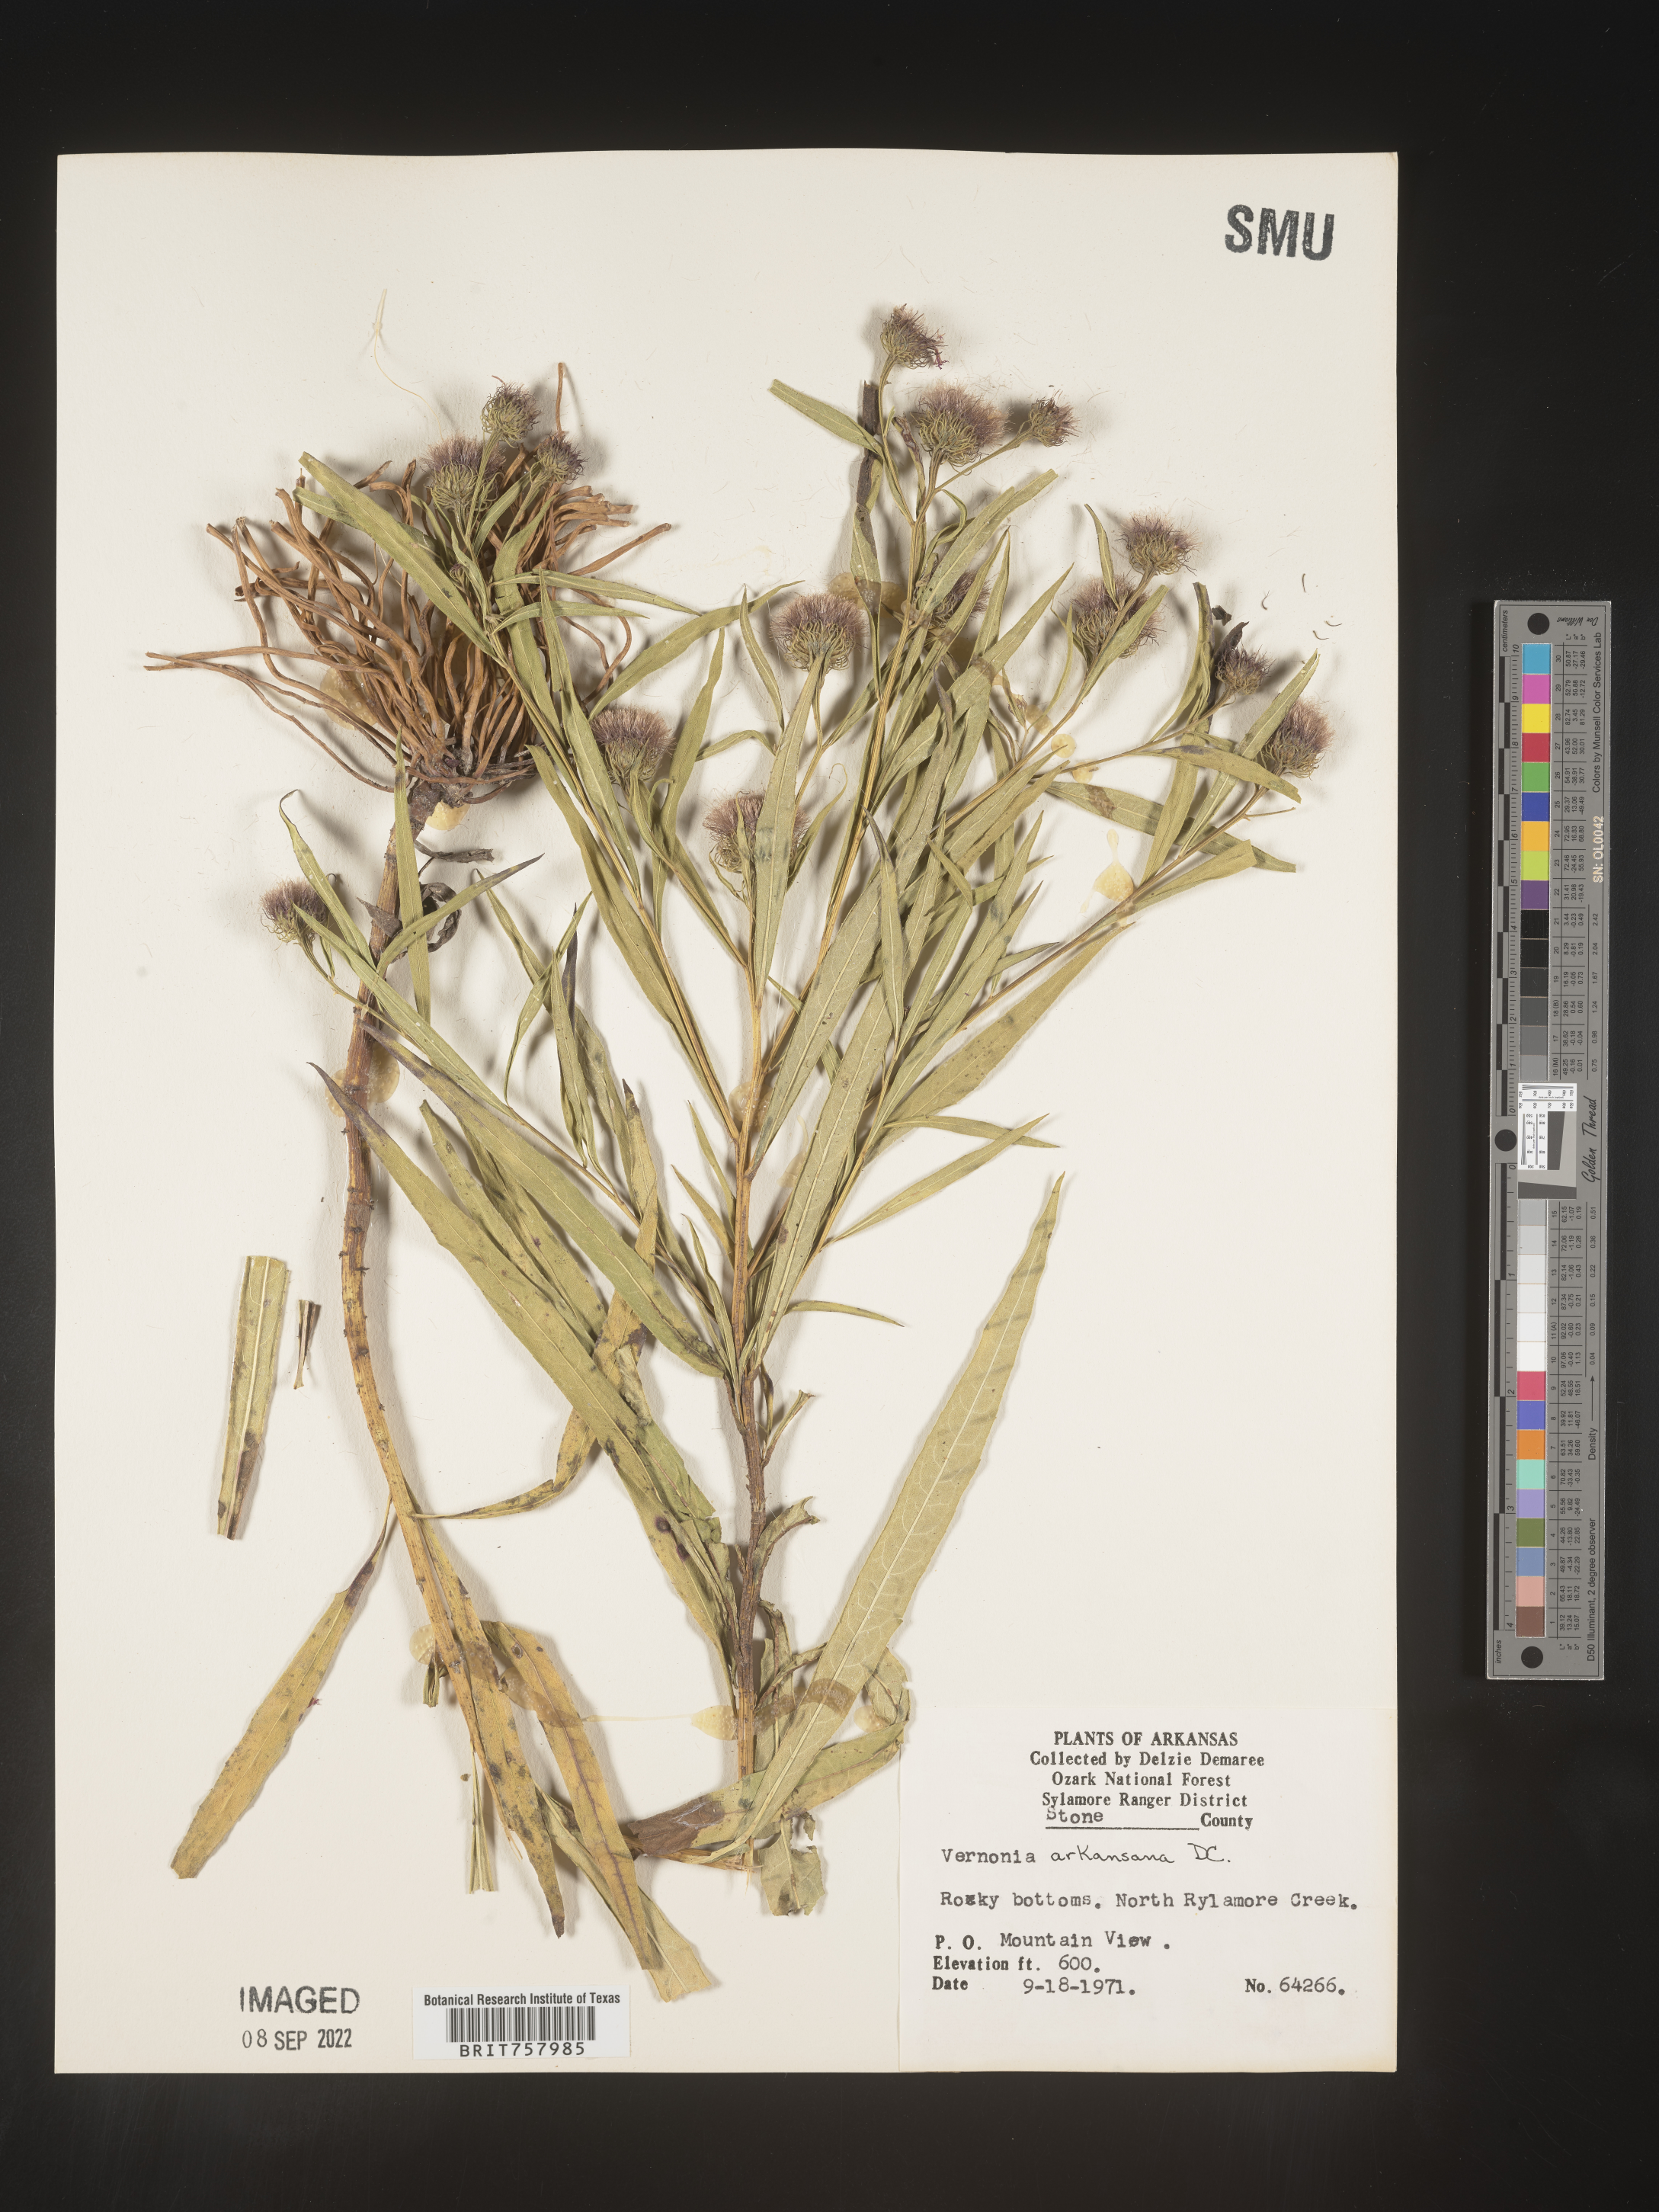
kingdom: Plantae
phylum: Tracheophyta
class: Magnoliopsida
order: Asterales
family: Asteraceae
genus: Vernonia
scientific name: Vernonia arkansana
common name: Ozark ironweed
